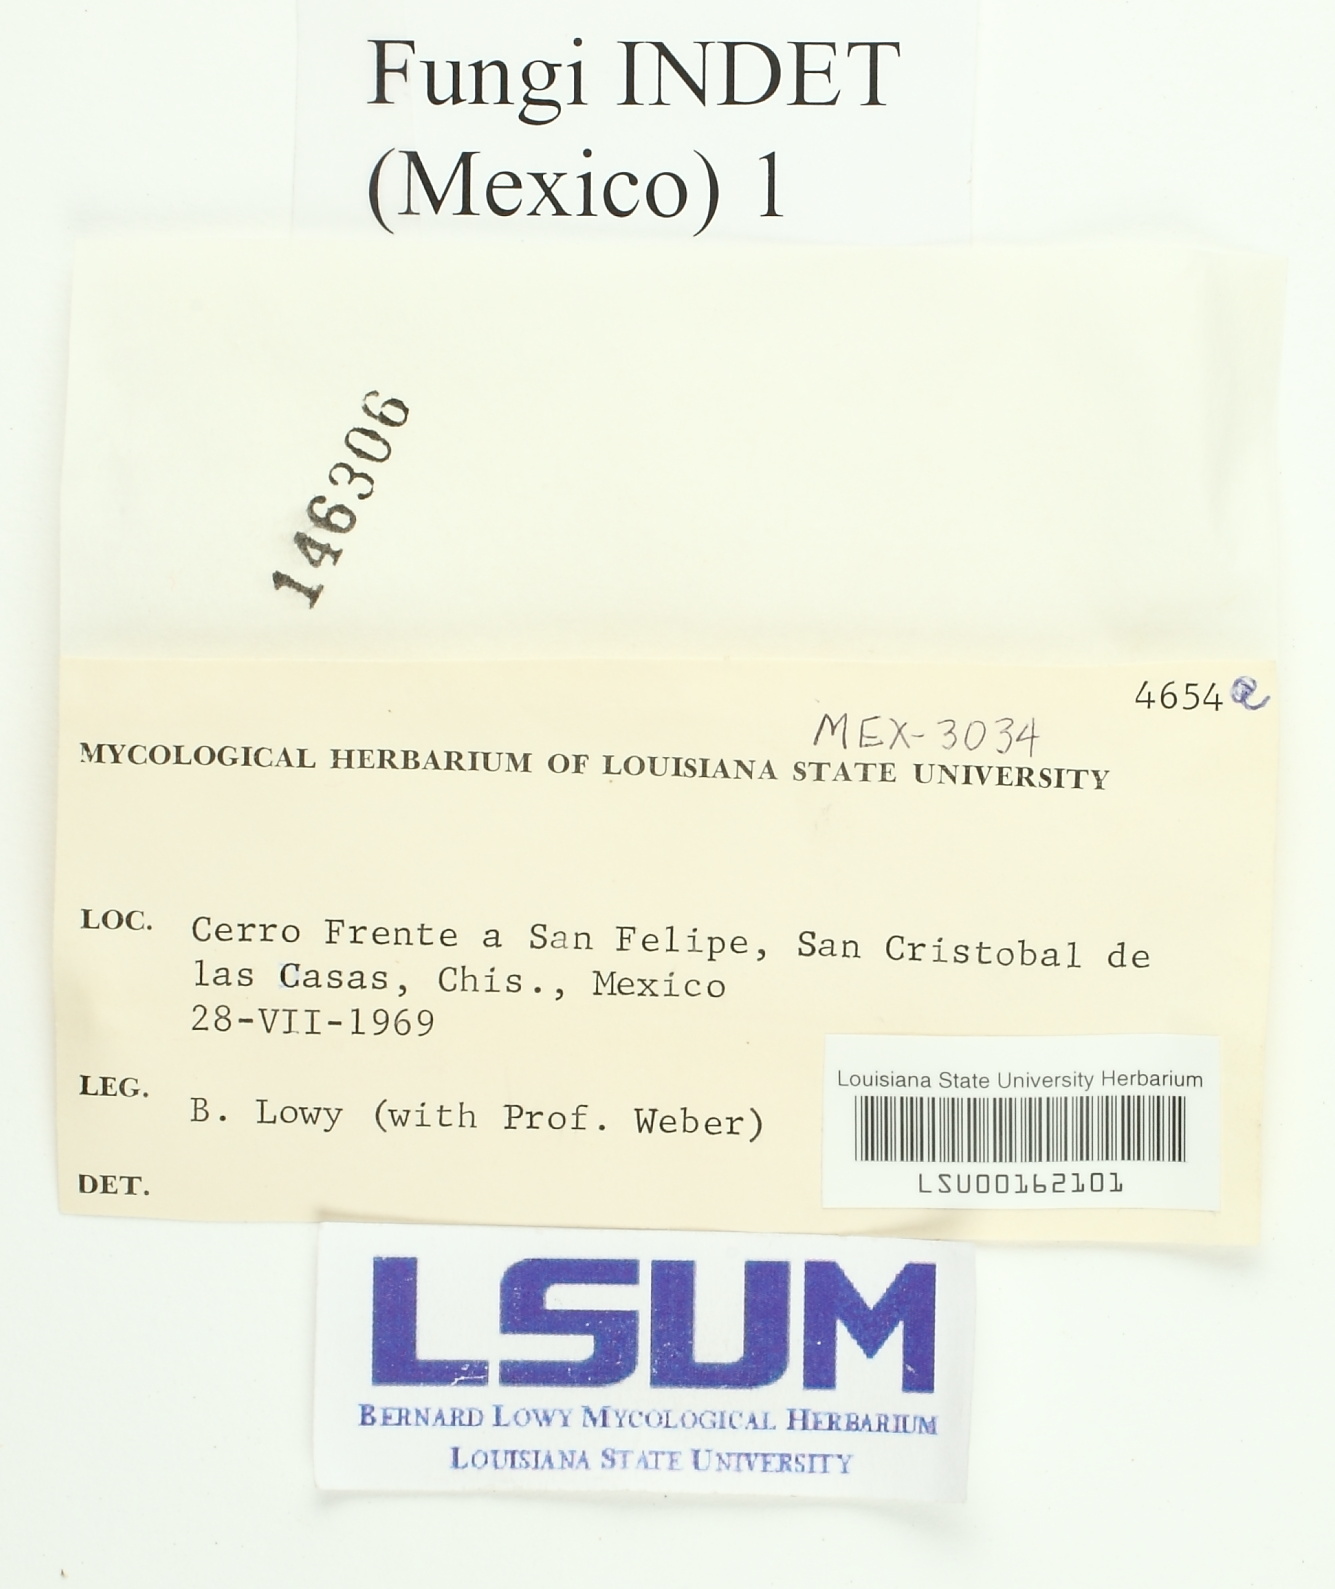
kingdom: Fungi
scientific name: Fungi
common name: Fungi
